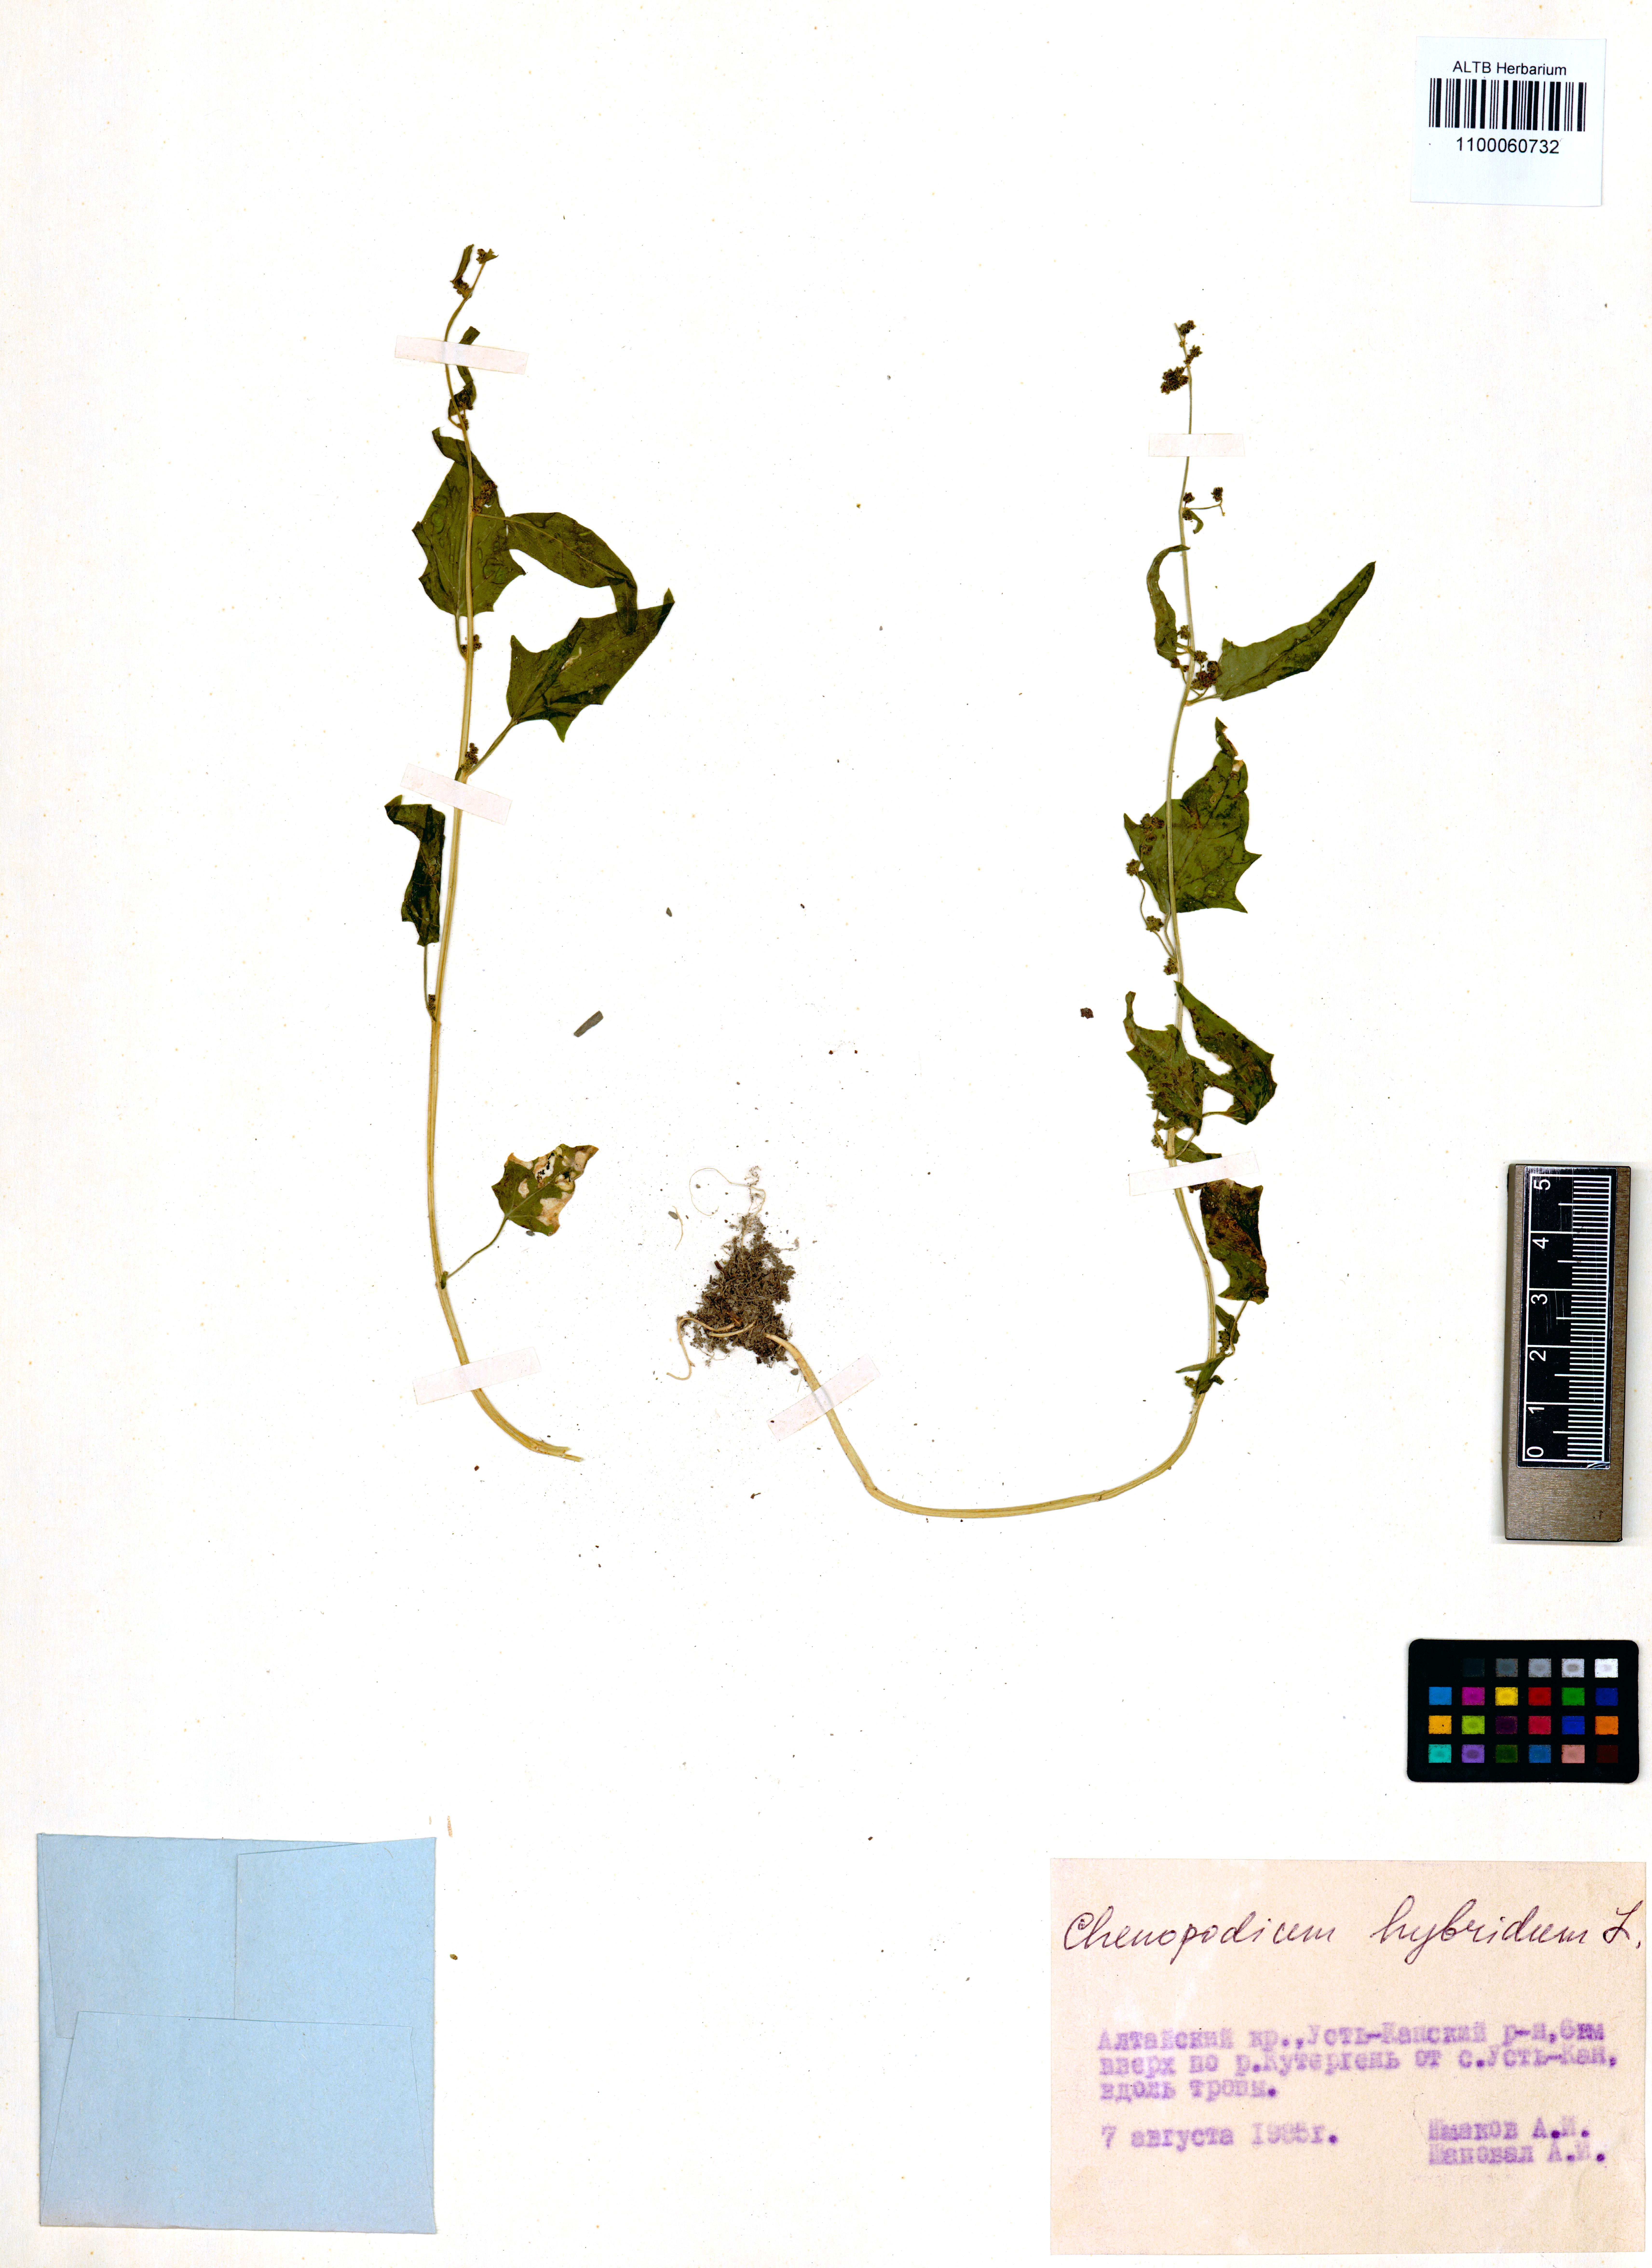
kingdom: Plantae
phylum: Tracheophyta
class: Magnoliopsida
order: Caryophyllales
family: Amaranthaceae
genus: Chenopodiastrum
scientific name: Chenopodiastrum hybridum
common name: Mapleleaf goosefoot
